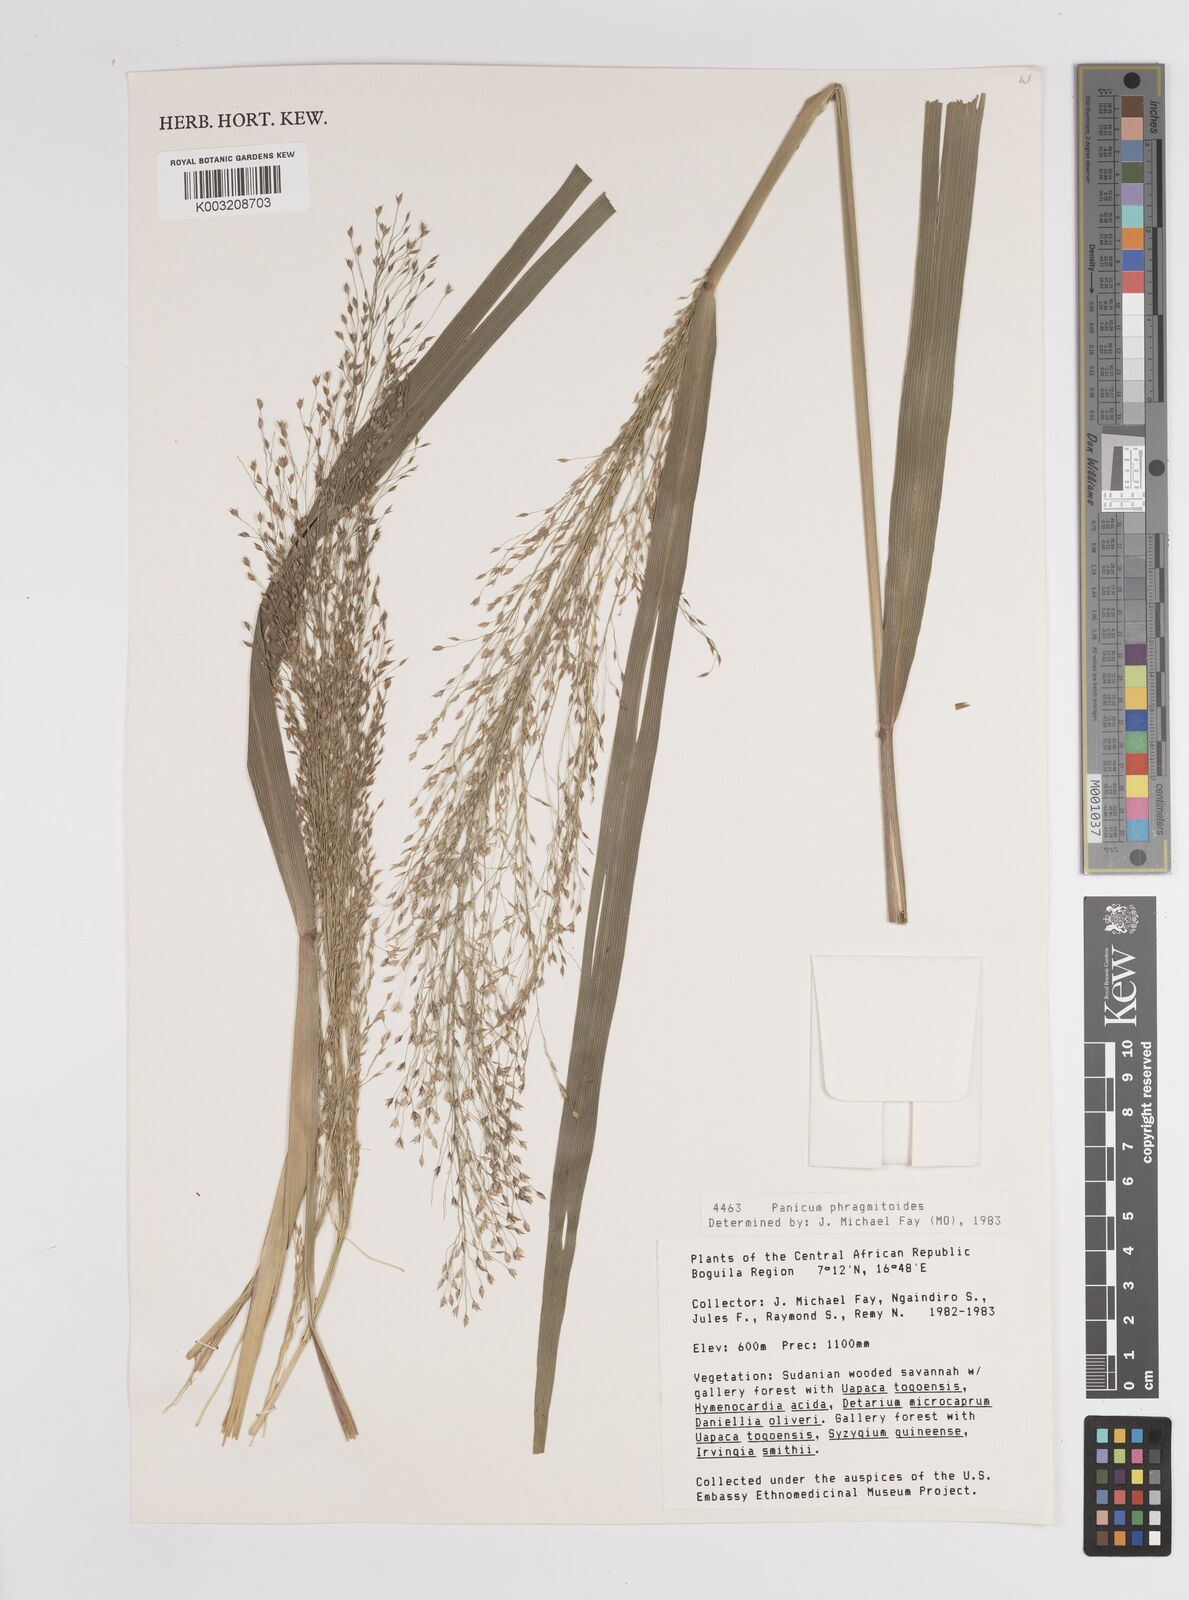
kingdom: Plantae
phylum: Tracheophyta
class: Liliopsida
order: Poales
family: Poaceae
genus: Panicum
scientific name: Panicum phragmitoides
